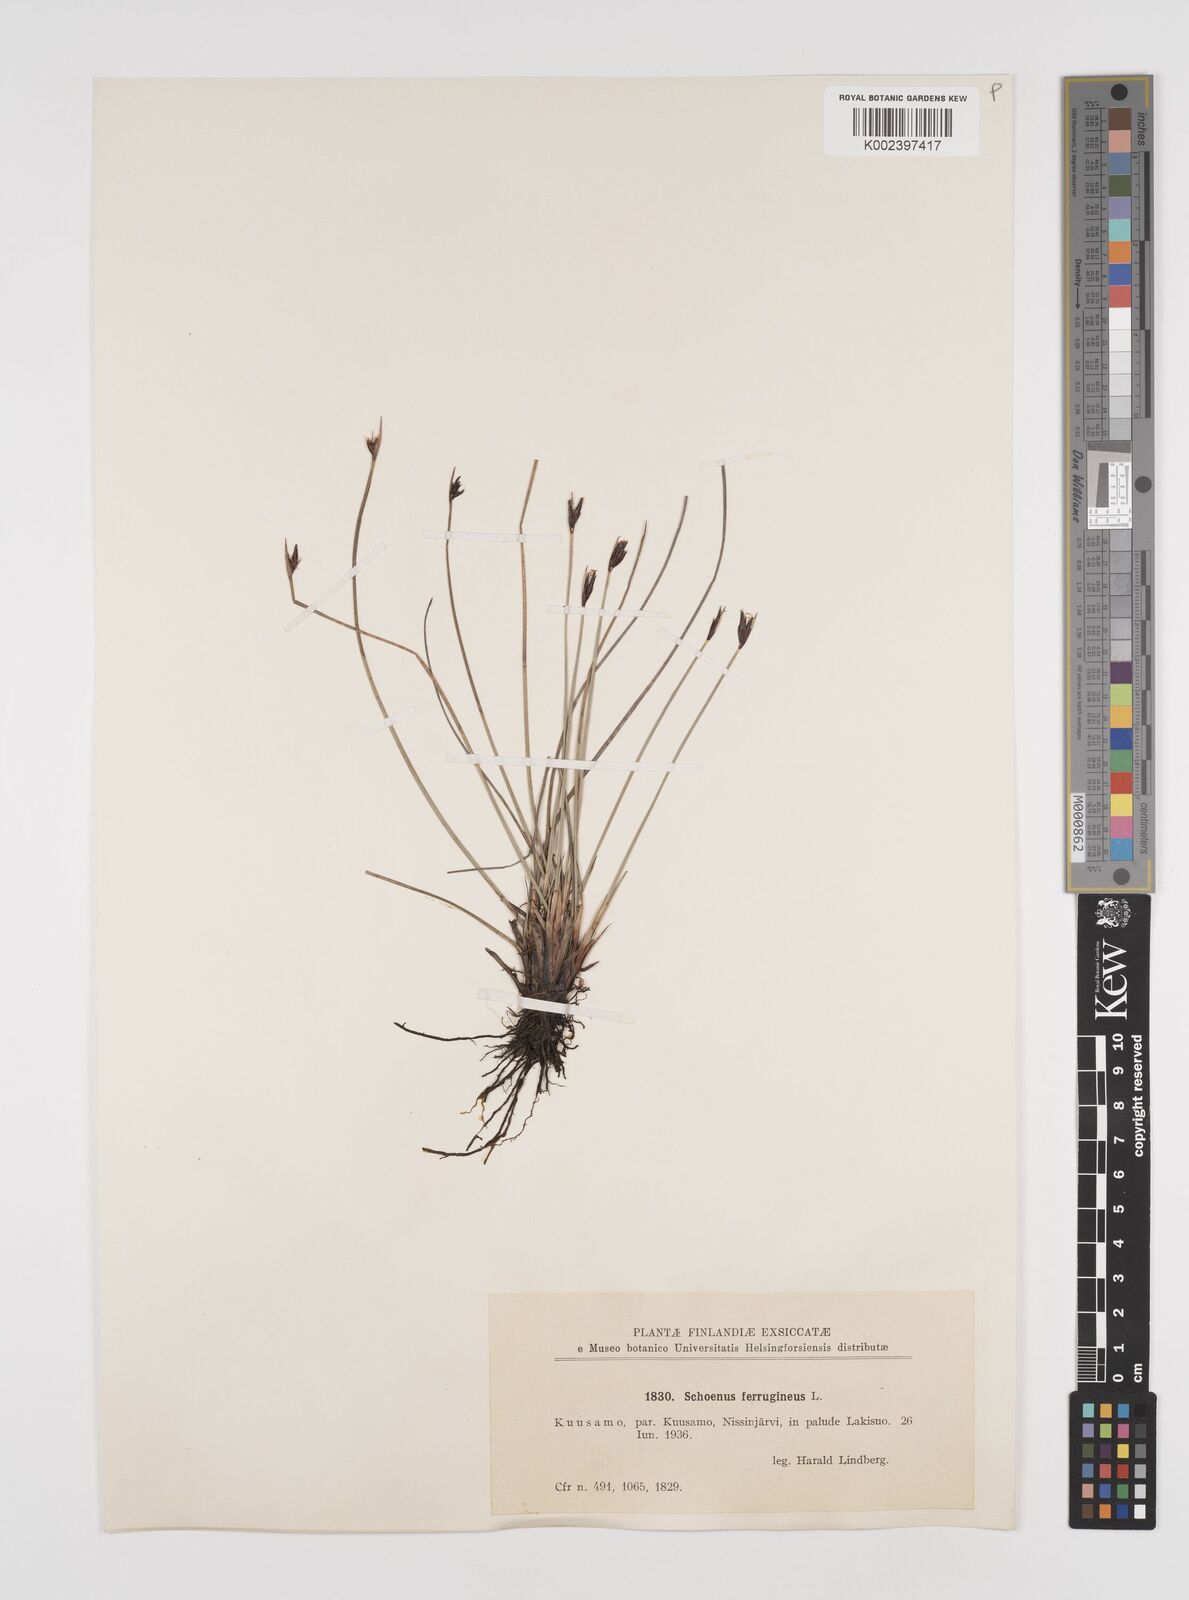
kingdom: Plantae
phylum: Tracheophyta
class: Liliopsida
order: Poales
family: Cyperaceae
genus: Schoenus
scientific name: Schoenus ferrugineus
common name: Brown bog-rush
